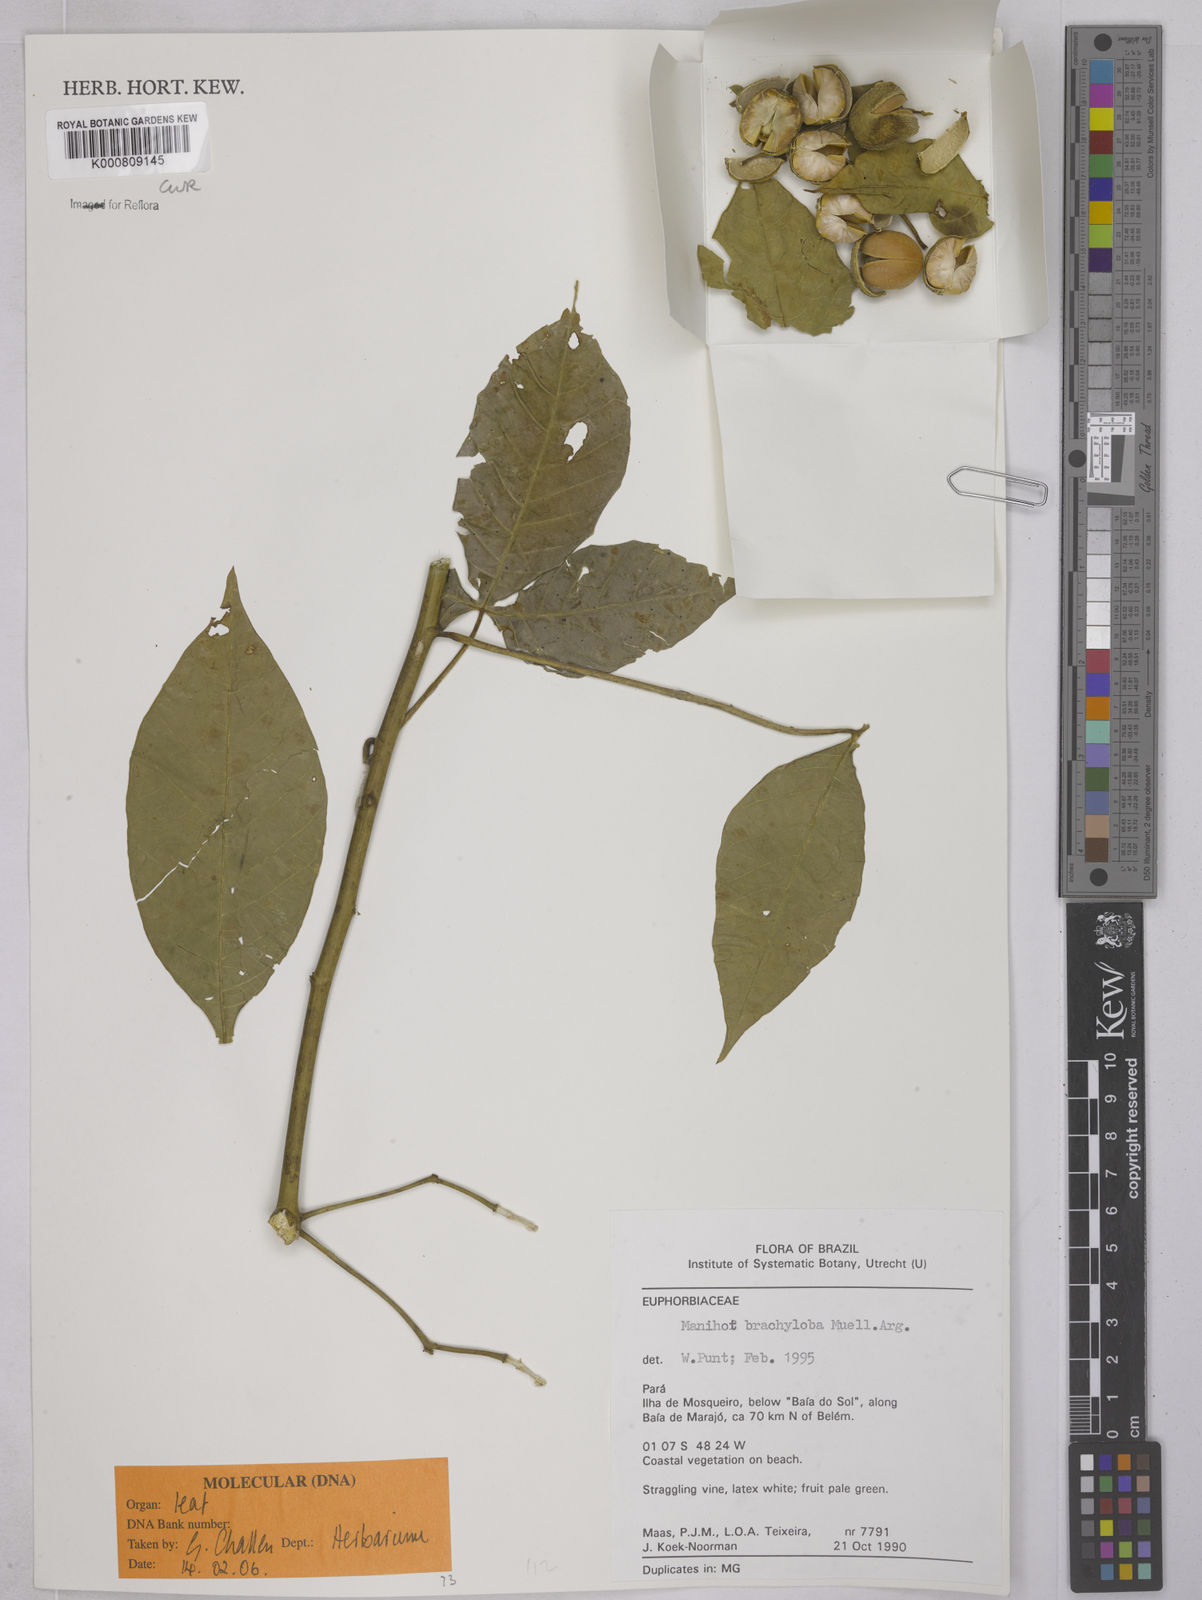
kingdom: Plantae
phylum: Tracheophyta
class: Magnoliopsida
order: Malpighiales
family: Euphorbiaceae
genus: Manihot
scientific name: Manihot brachyloba
